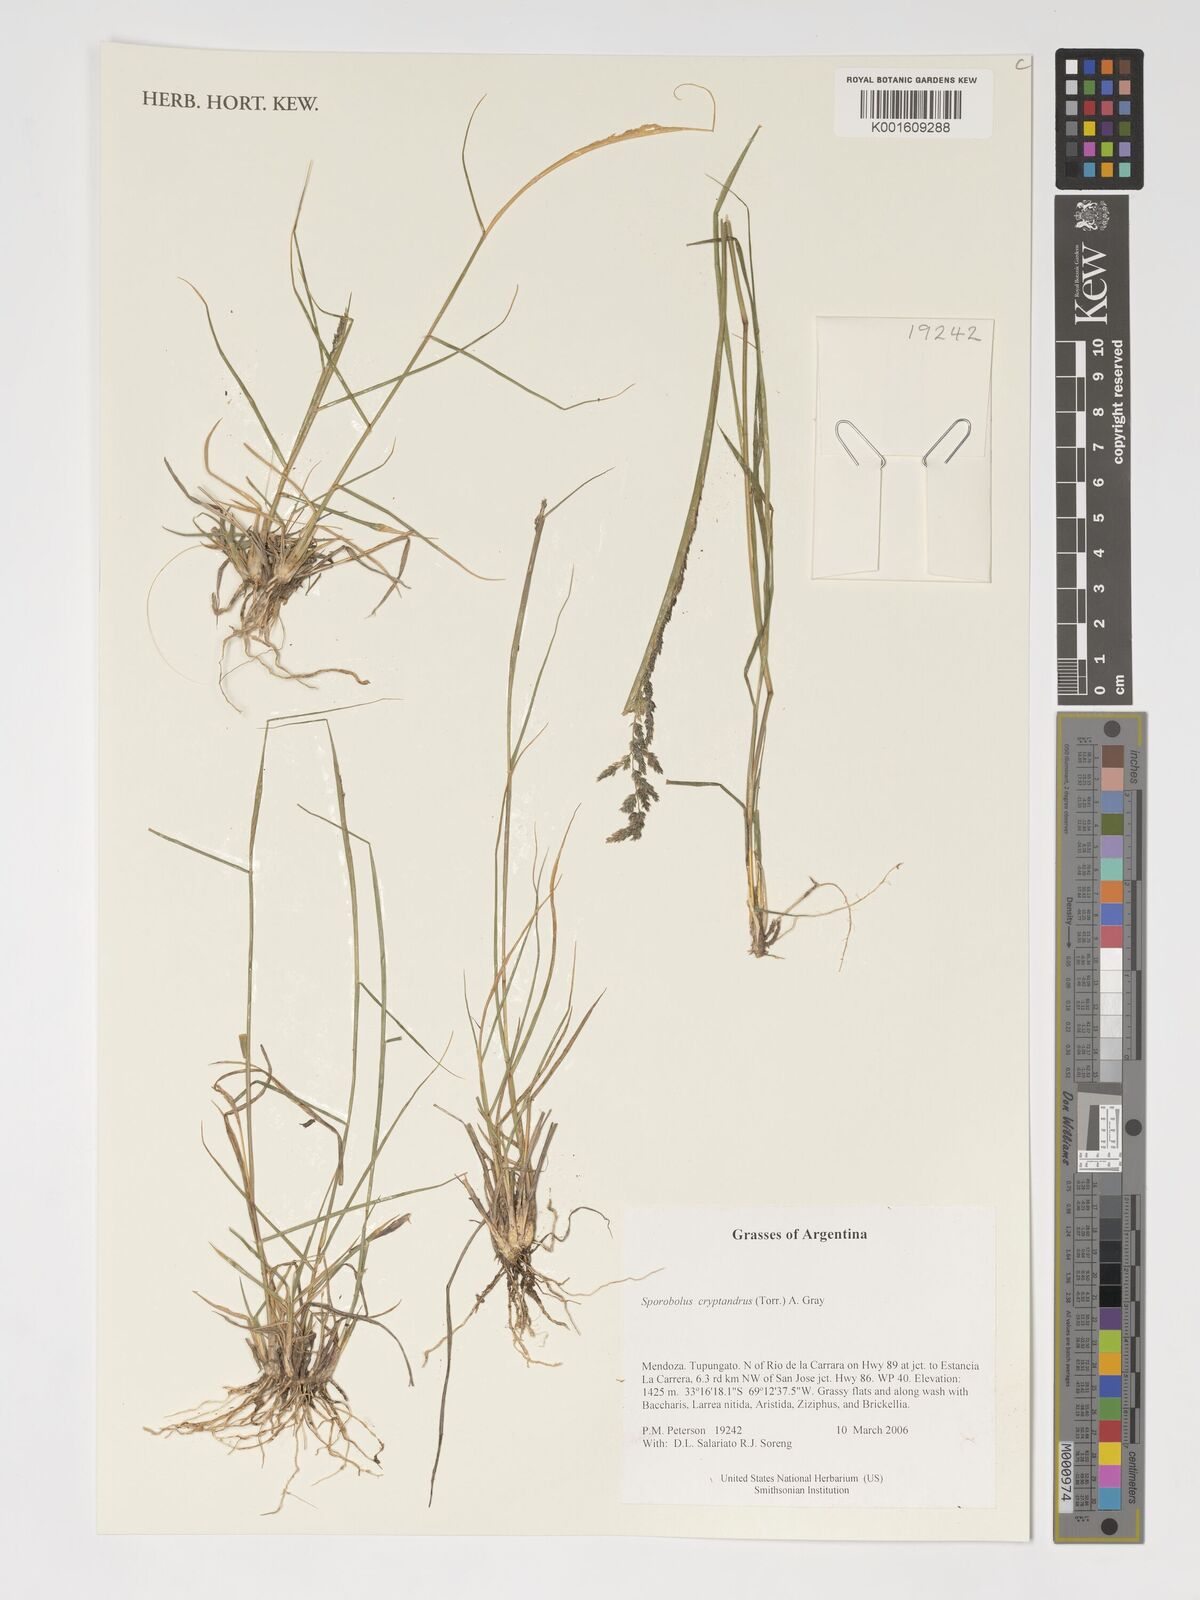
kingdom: Plantae
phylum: Tracheophyta
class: Liliopsida
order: Poales
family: Poaceae
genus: Sporobolus
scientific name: Sporobolus cryptandrus
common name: Sand dropseed
